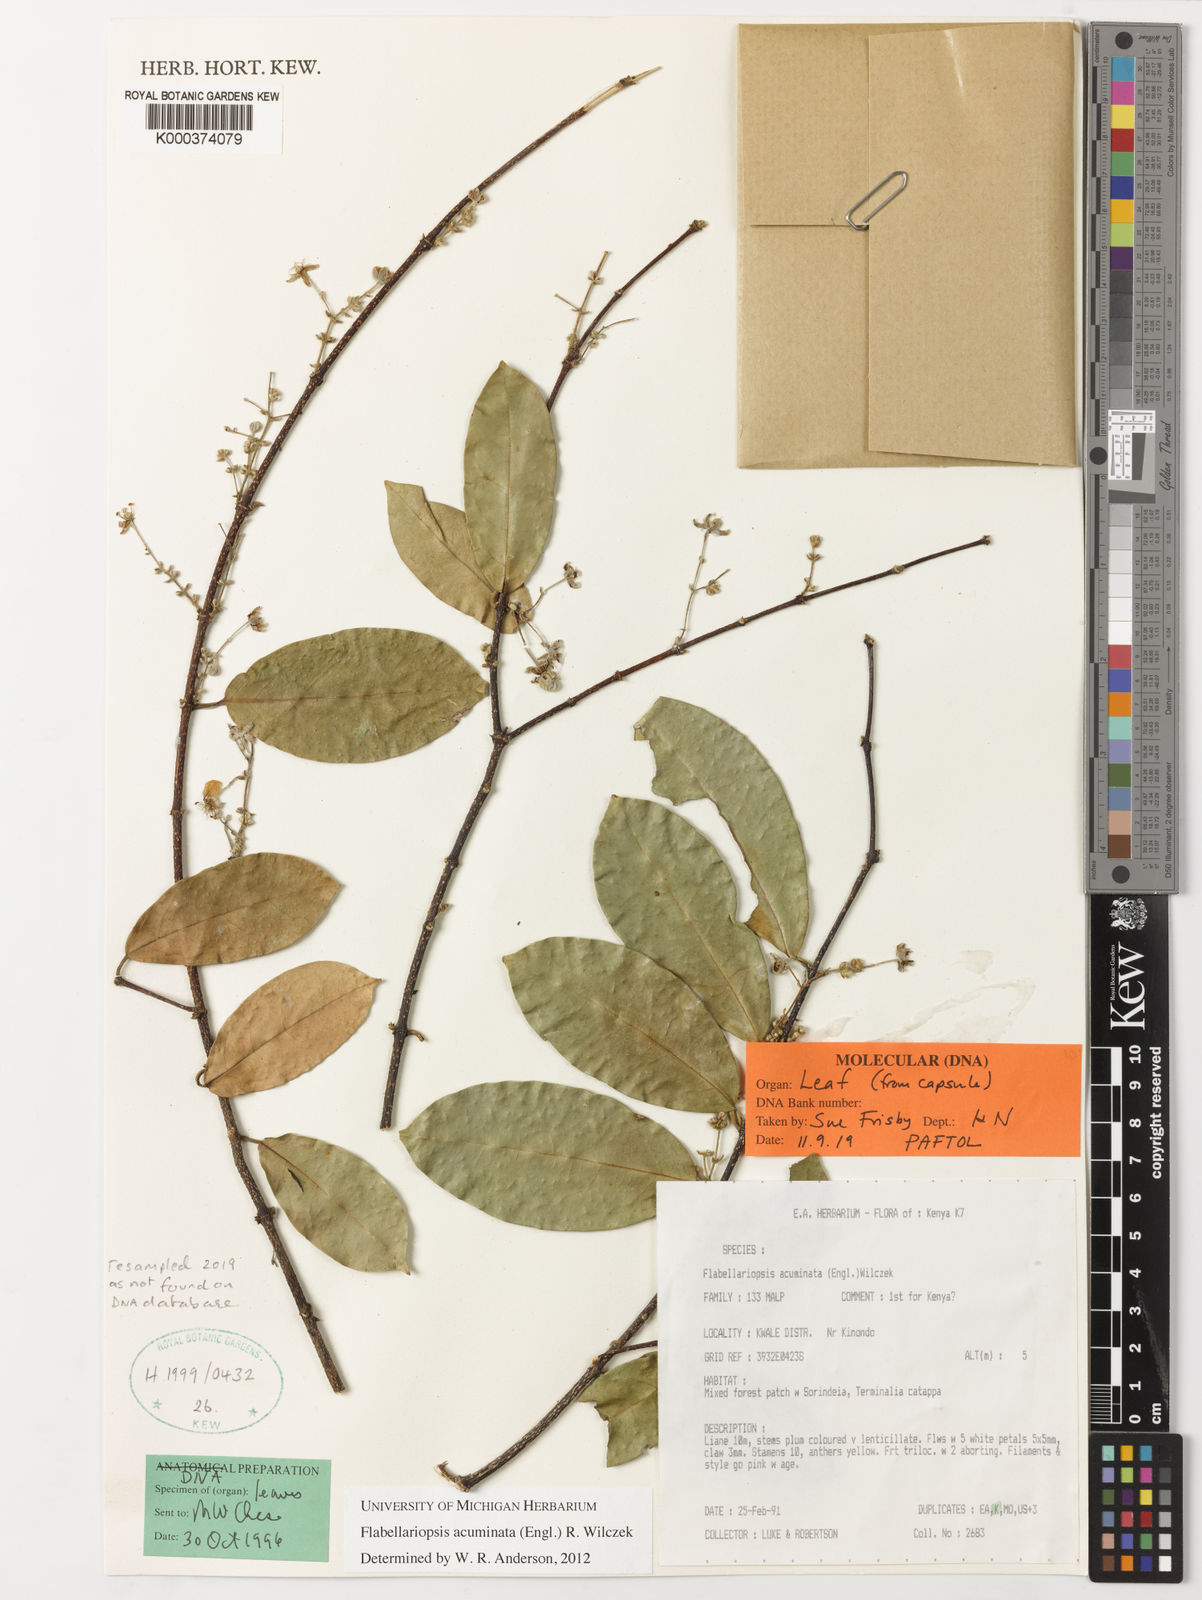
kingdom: Plantae
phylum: Tracheophyta
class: Magnoliopsida
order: Malpighiales
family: Malpighiaceae
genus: Flabellariopsis
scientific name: Flabellariopsis acuminata
